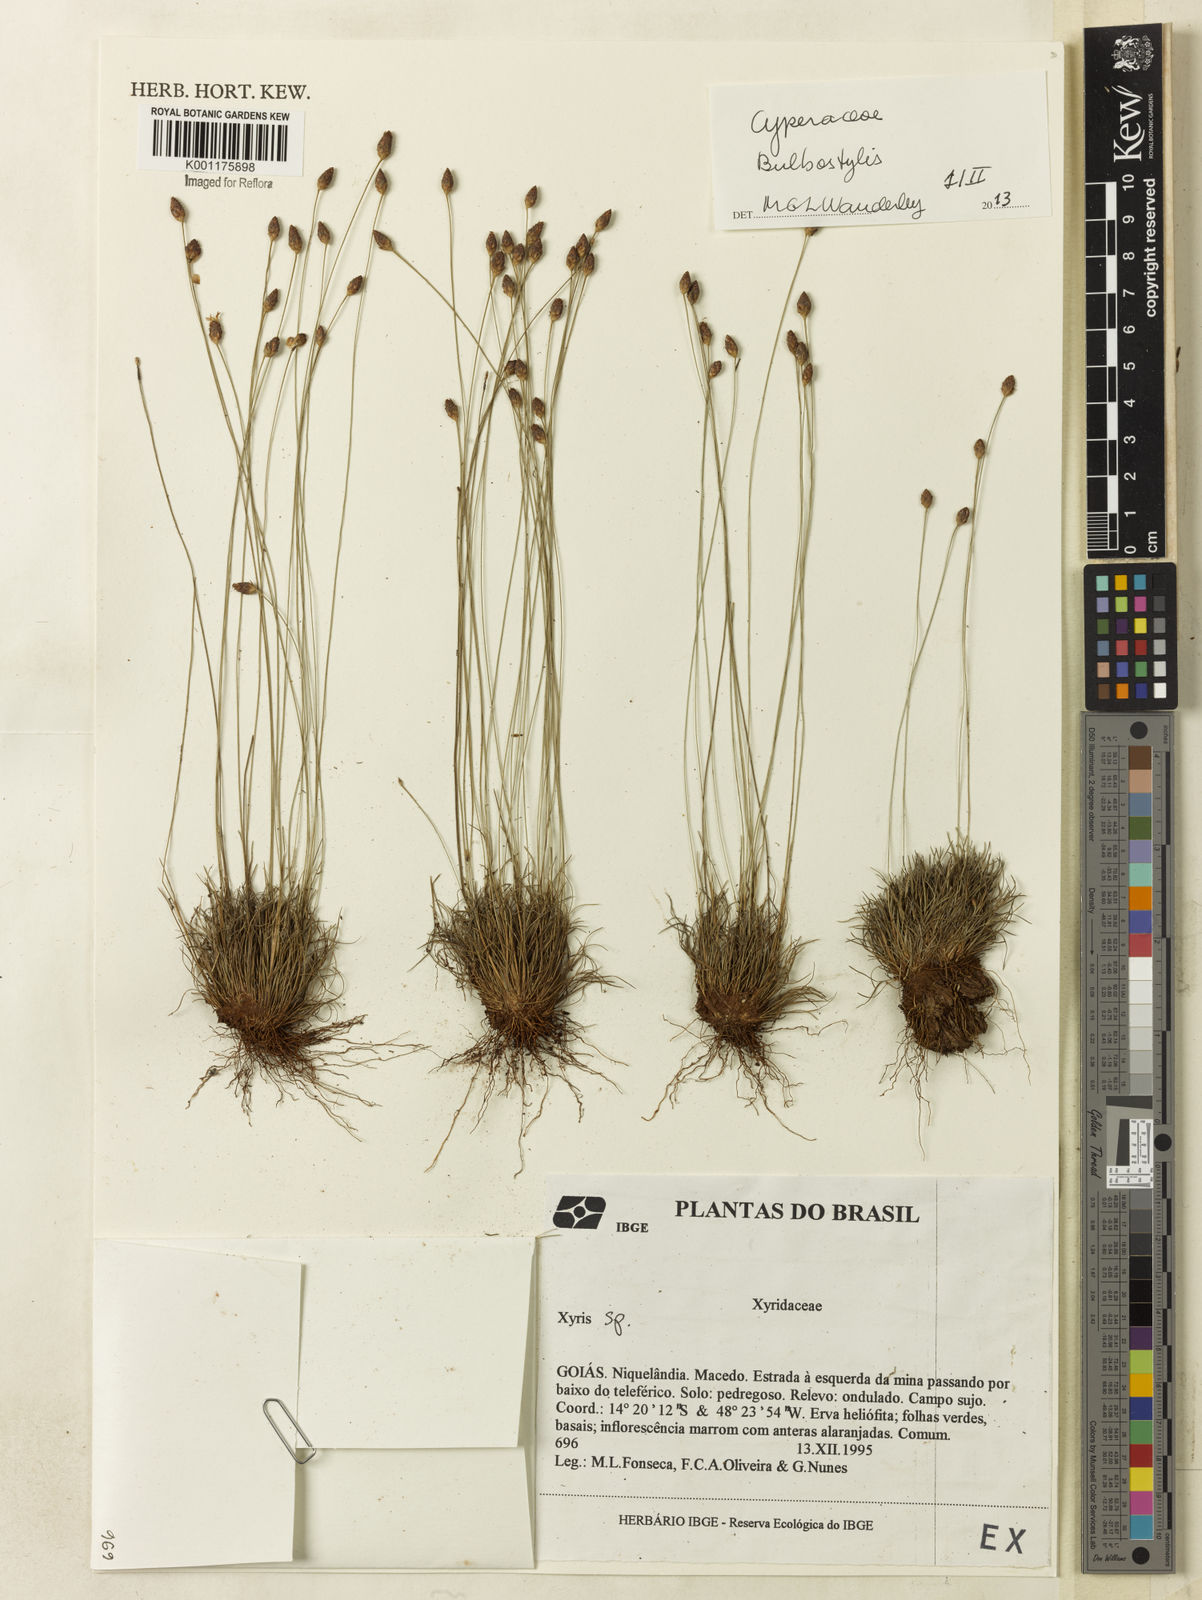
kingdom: Plantae
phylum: Tracheophyta
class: Liliopsida
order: Poales
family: Cyperaceae
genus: Bulbostylis
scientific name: Bulbostylis
